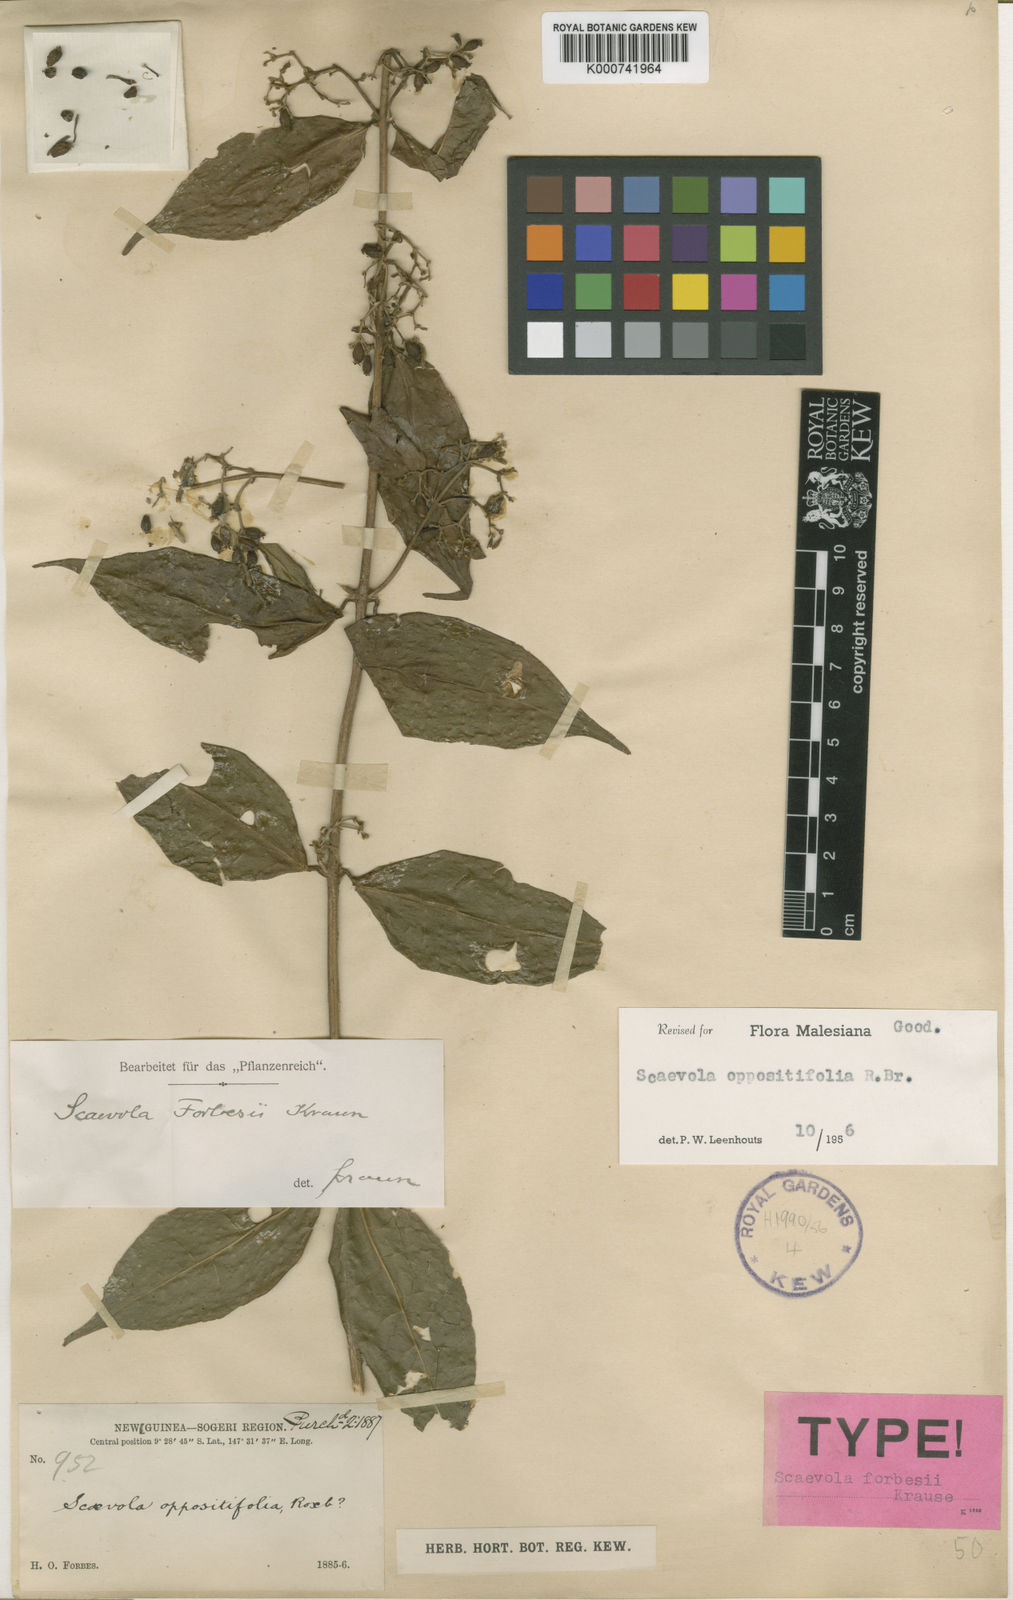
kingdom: Plantae
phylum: Tracheophyta
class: Magnoliopsida
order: Asterales
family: Goodeniaceae
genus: Scaevola
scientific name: Scaevola oppositifolia
